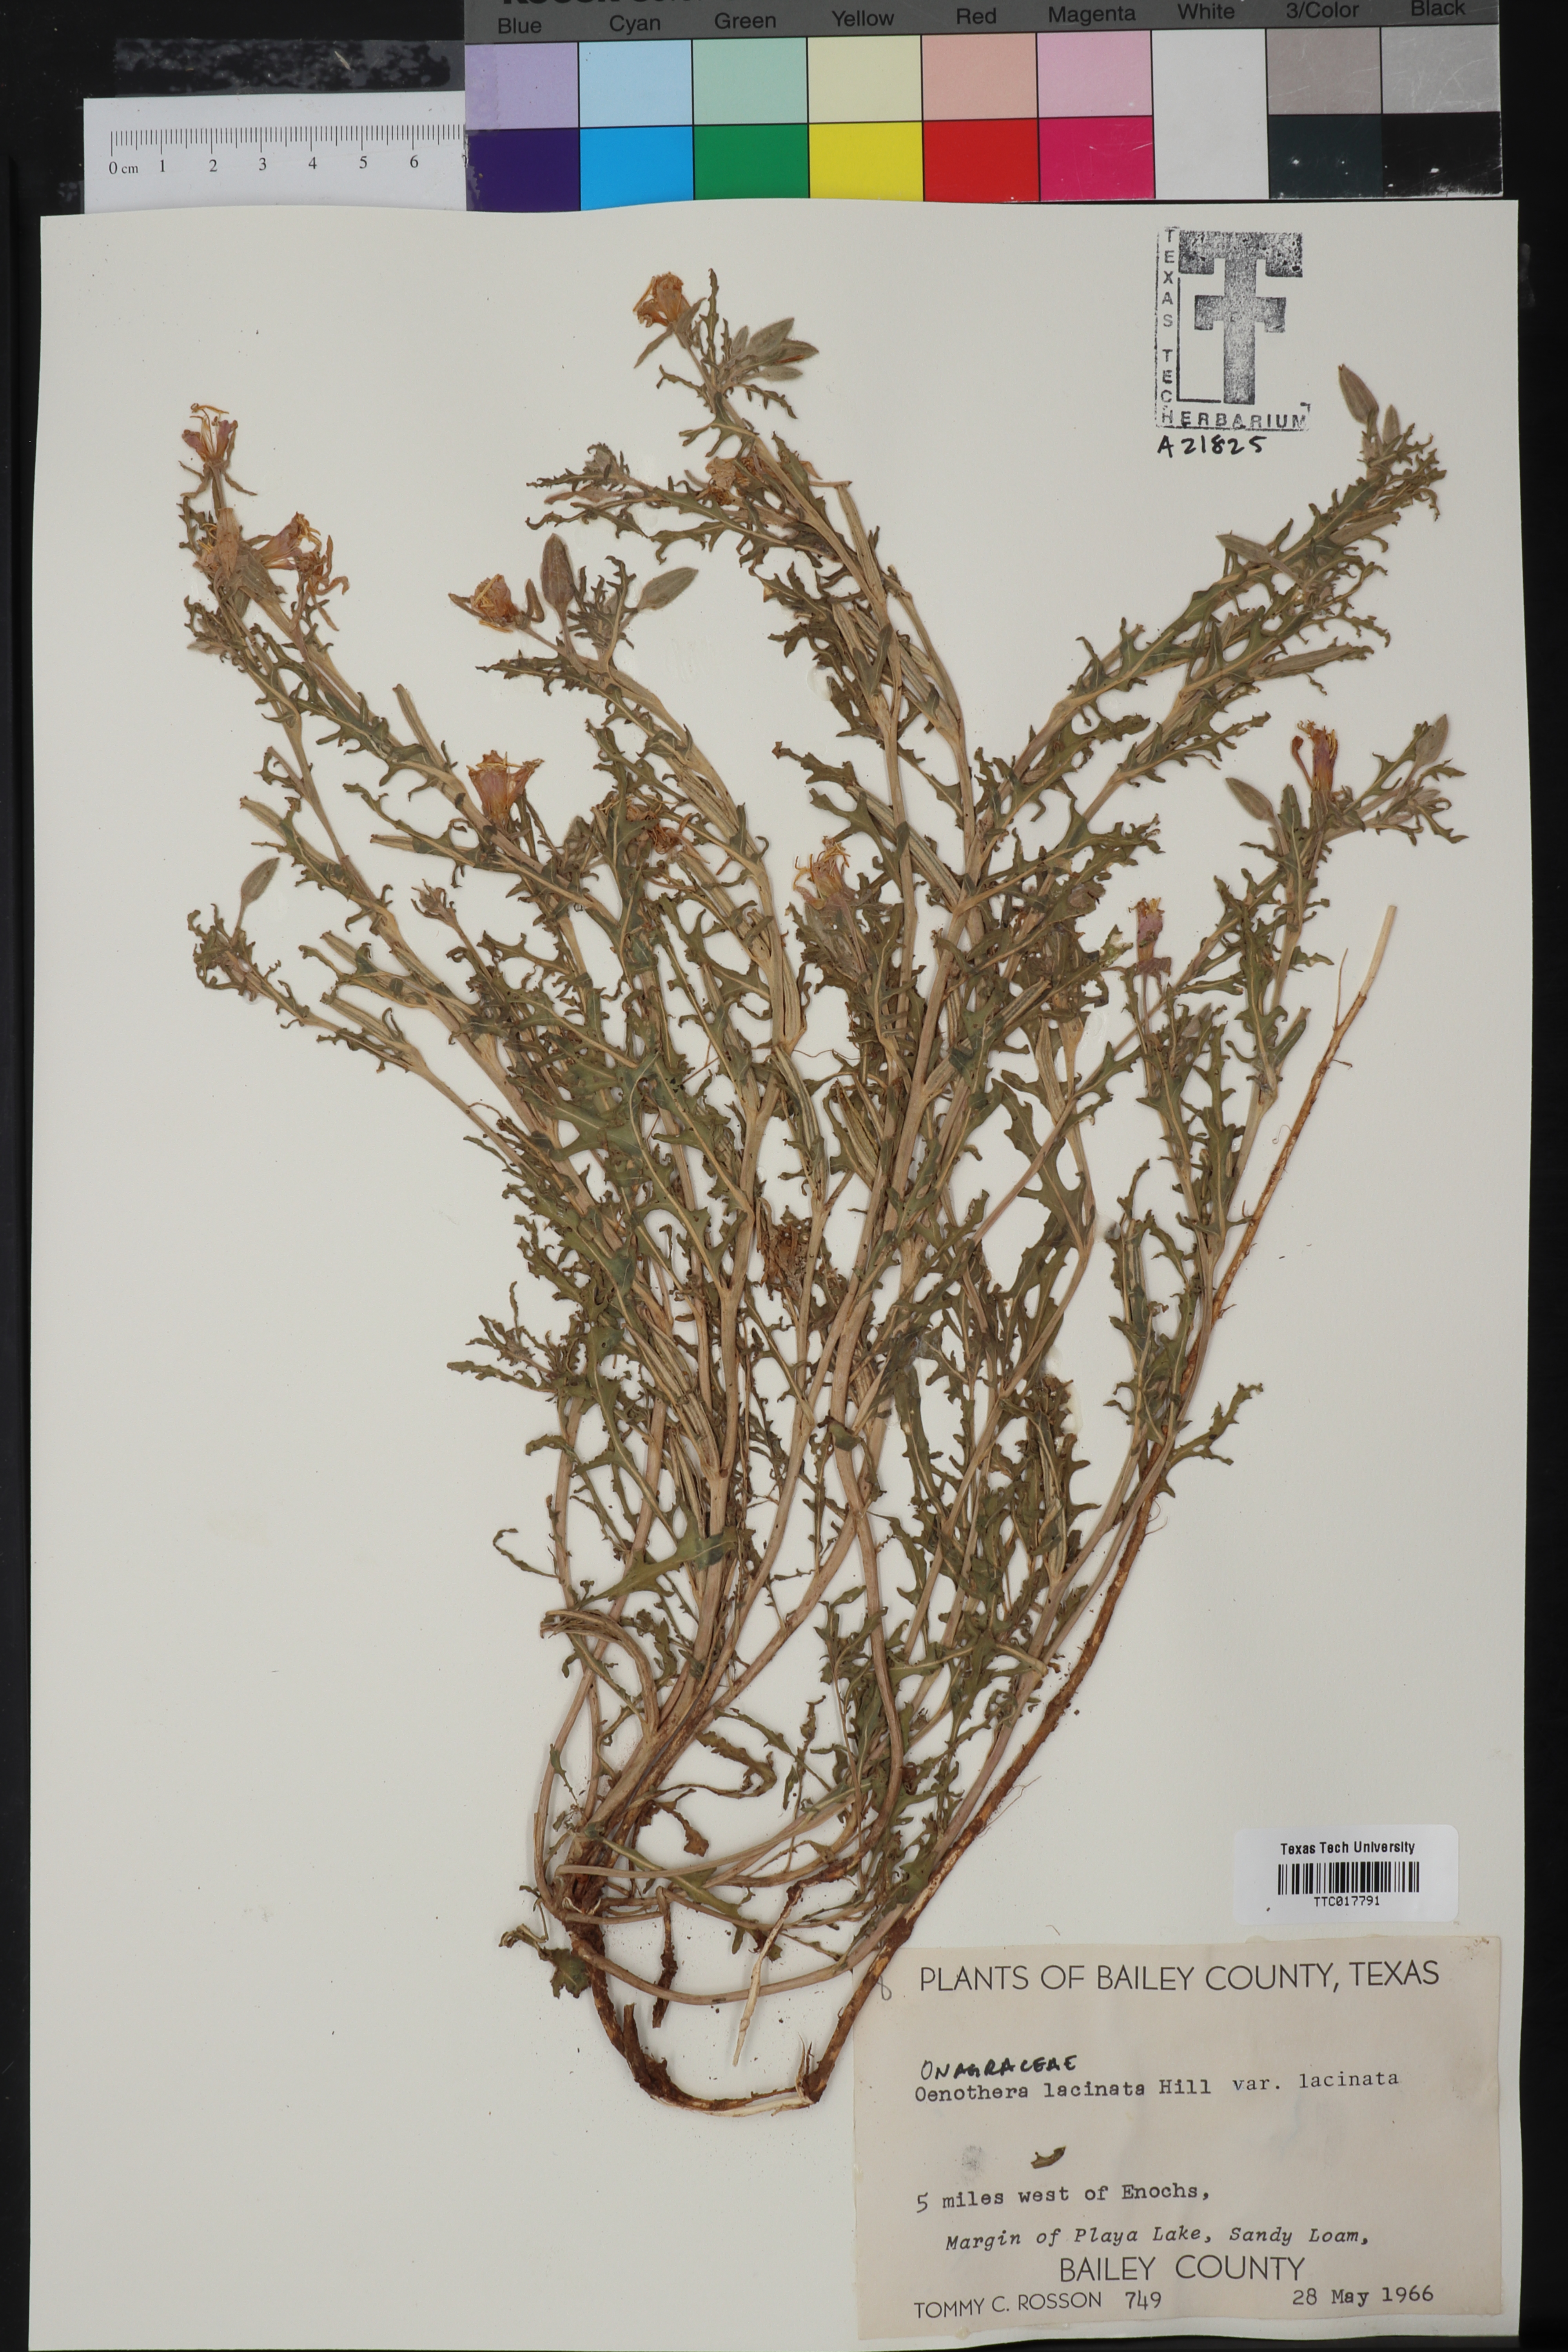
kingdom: Plantae
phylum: Tracheophyta
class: Magnoliopsida
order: Myrtales
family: Onagraceae
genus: Oenothera
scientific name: Oenothera laciniata
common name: Cut-leaved evening-primrose
